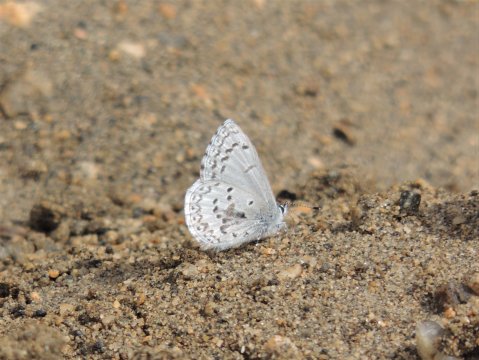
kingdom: Animalia
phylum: Arthropoda
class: Insecta
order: Lepidoptera
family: Lycaenidae
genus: Celastrina
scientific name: Celastrina asheri
